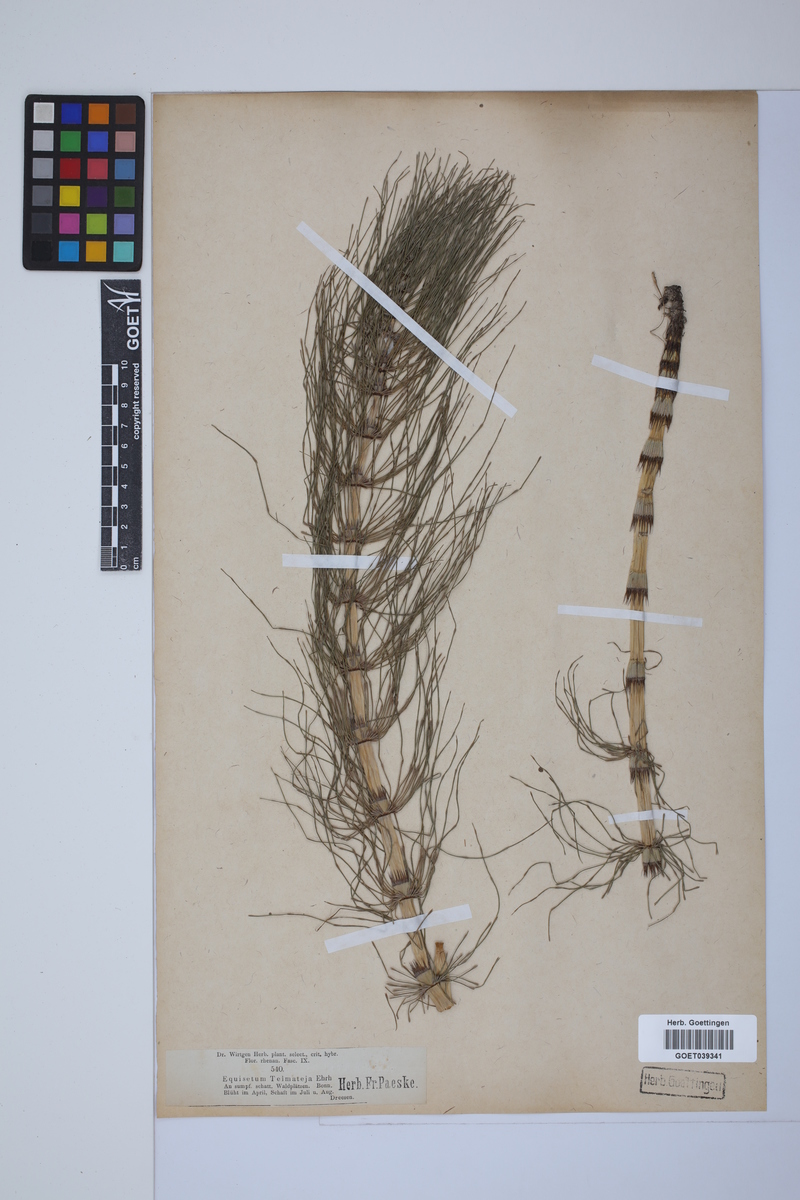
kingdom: Plantae
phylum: Tracheophyta
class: Polypodiopsida
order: Equisetales
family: Equisetaceae
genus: Equisetum
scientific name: Equisetum telmateia
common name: Great horsetail
